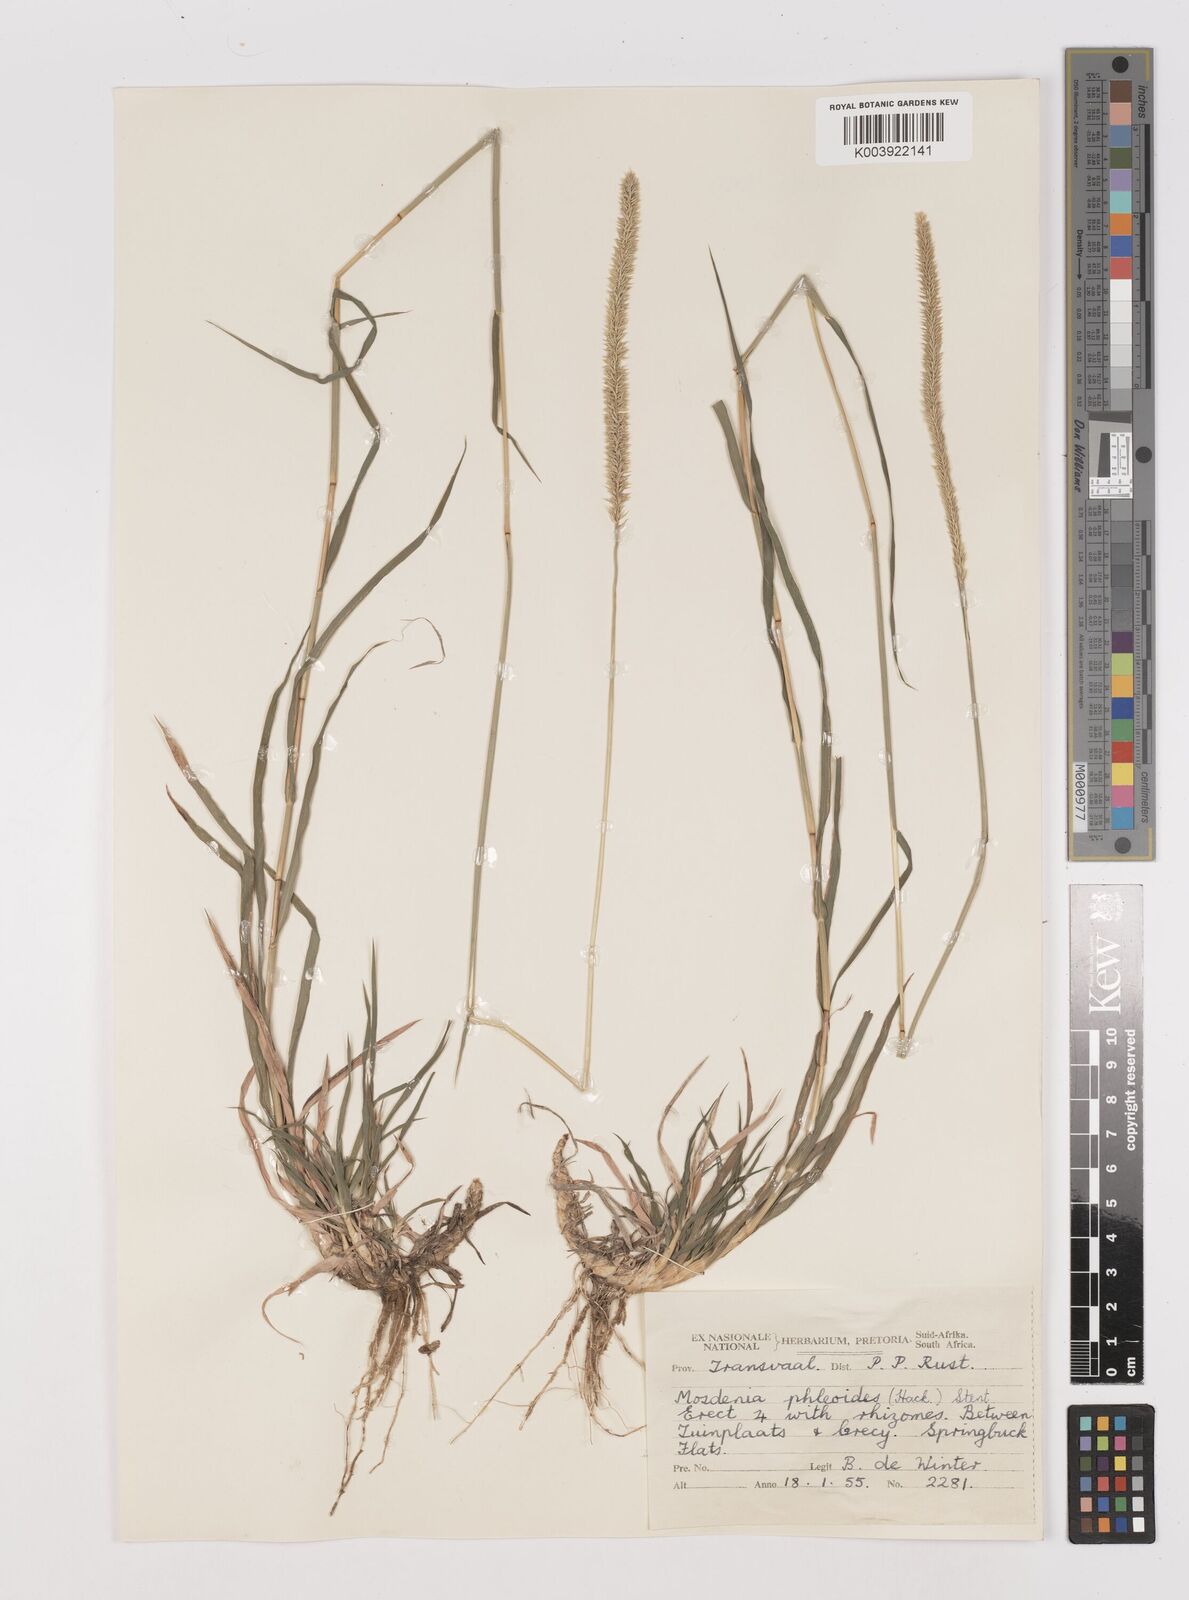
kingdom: Plantae
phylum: Tracheophyta
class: Liliopsida
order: Poales
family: Poaceae
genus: Mosdenia
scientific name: Mosdenia leptostachys
